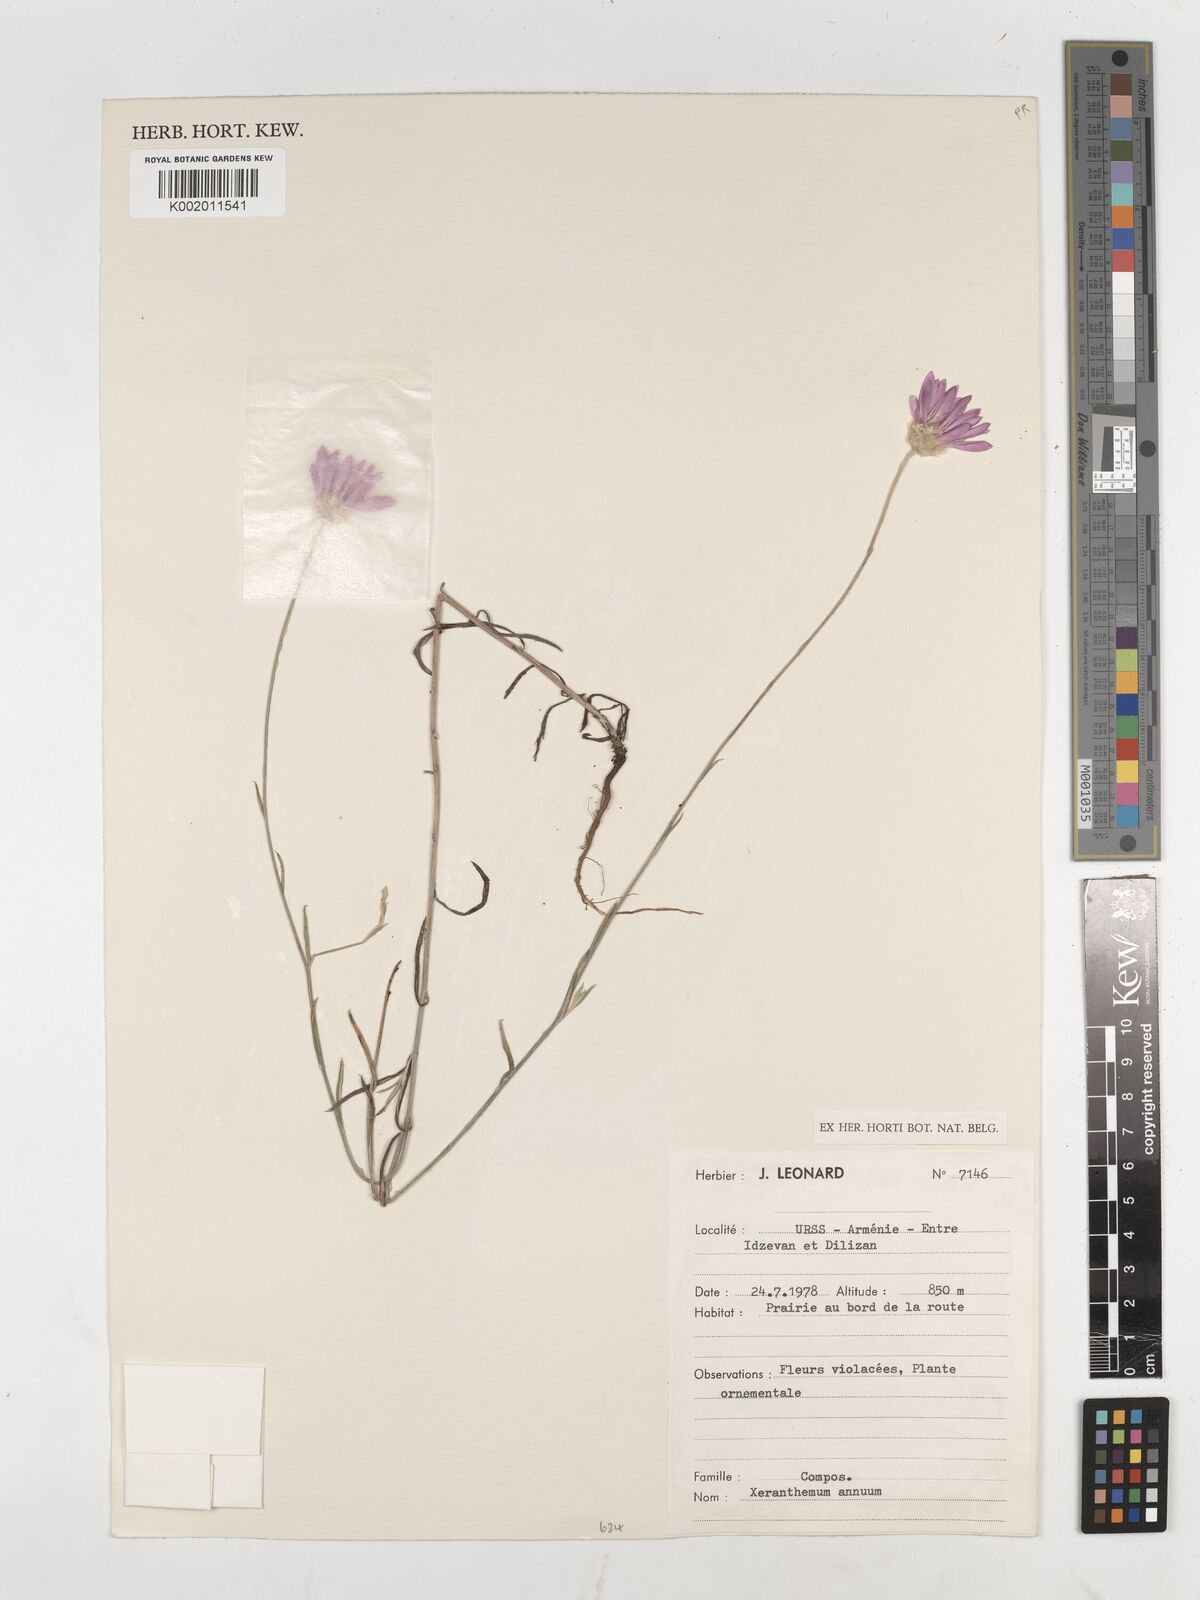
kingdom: Plantae
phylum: Tracheophyta
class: Magnoliopsida
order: Asterales
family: Asteraceae
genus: Xeranthemum
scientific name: Xeranthemum annuum
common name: Immortelle
